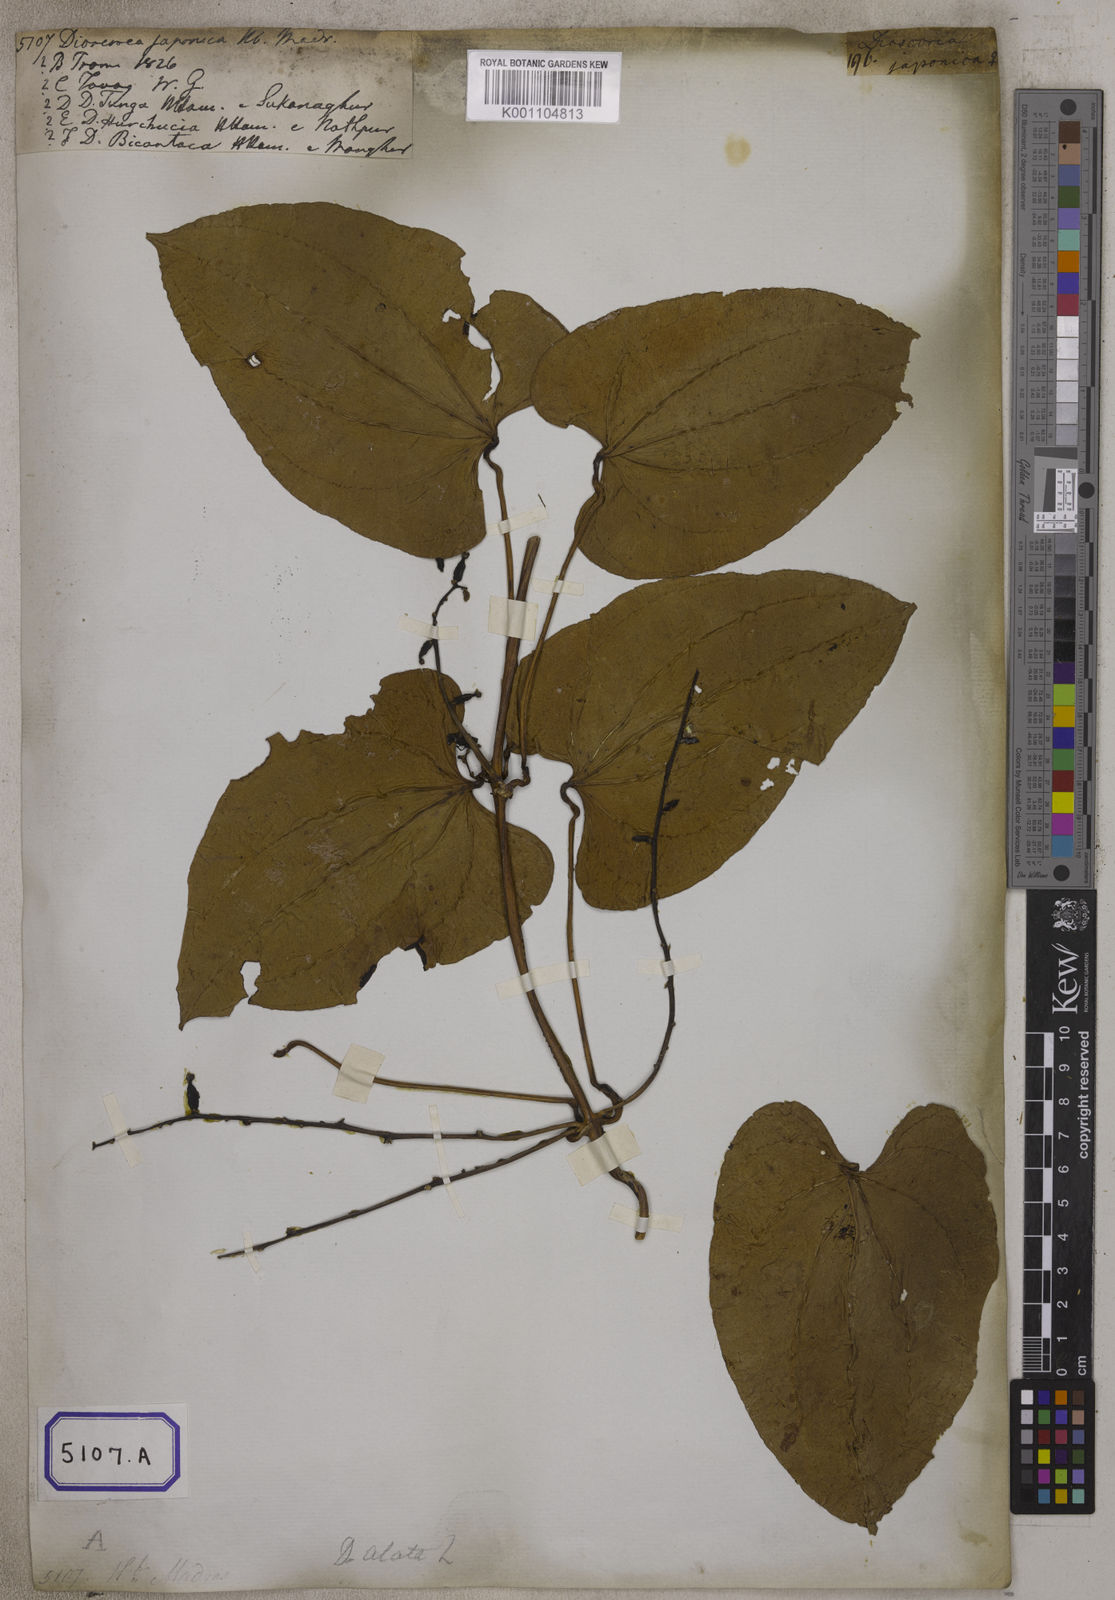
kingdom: Plantae
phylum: Tracheophyta
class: Liliopsida
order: Dioscoreales
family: Dioscoreaceae
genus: Dioscorea
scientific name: Dioscorea
